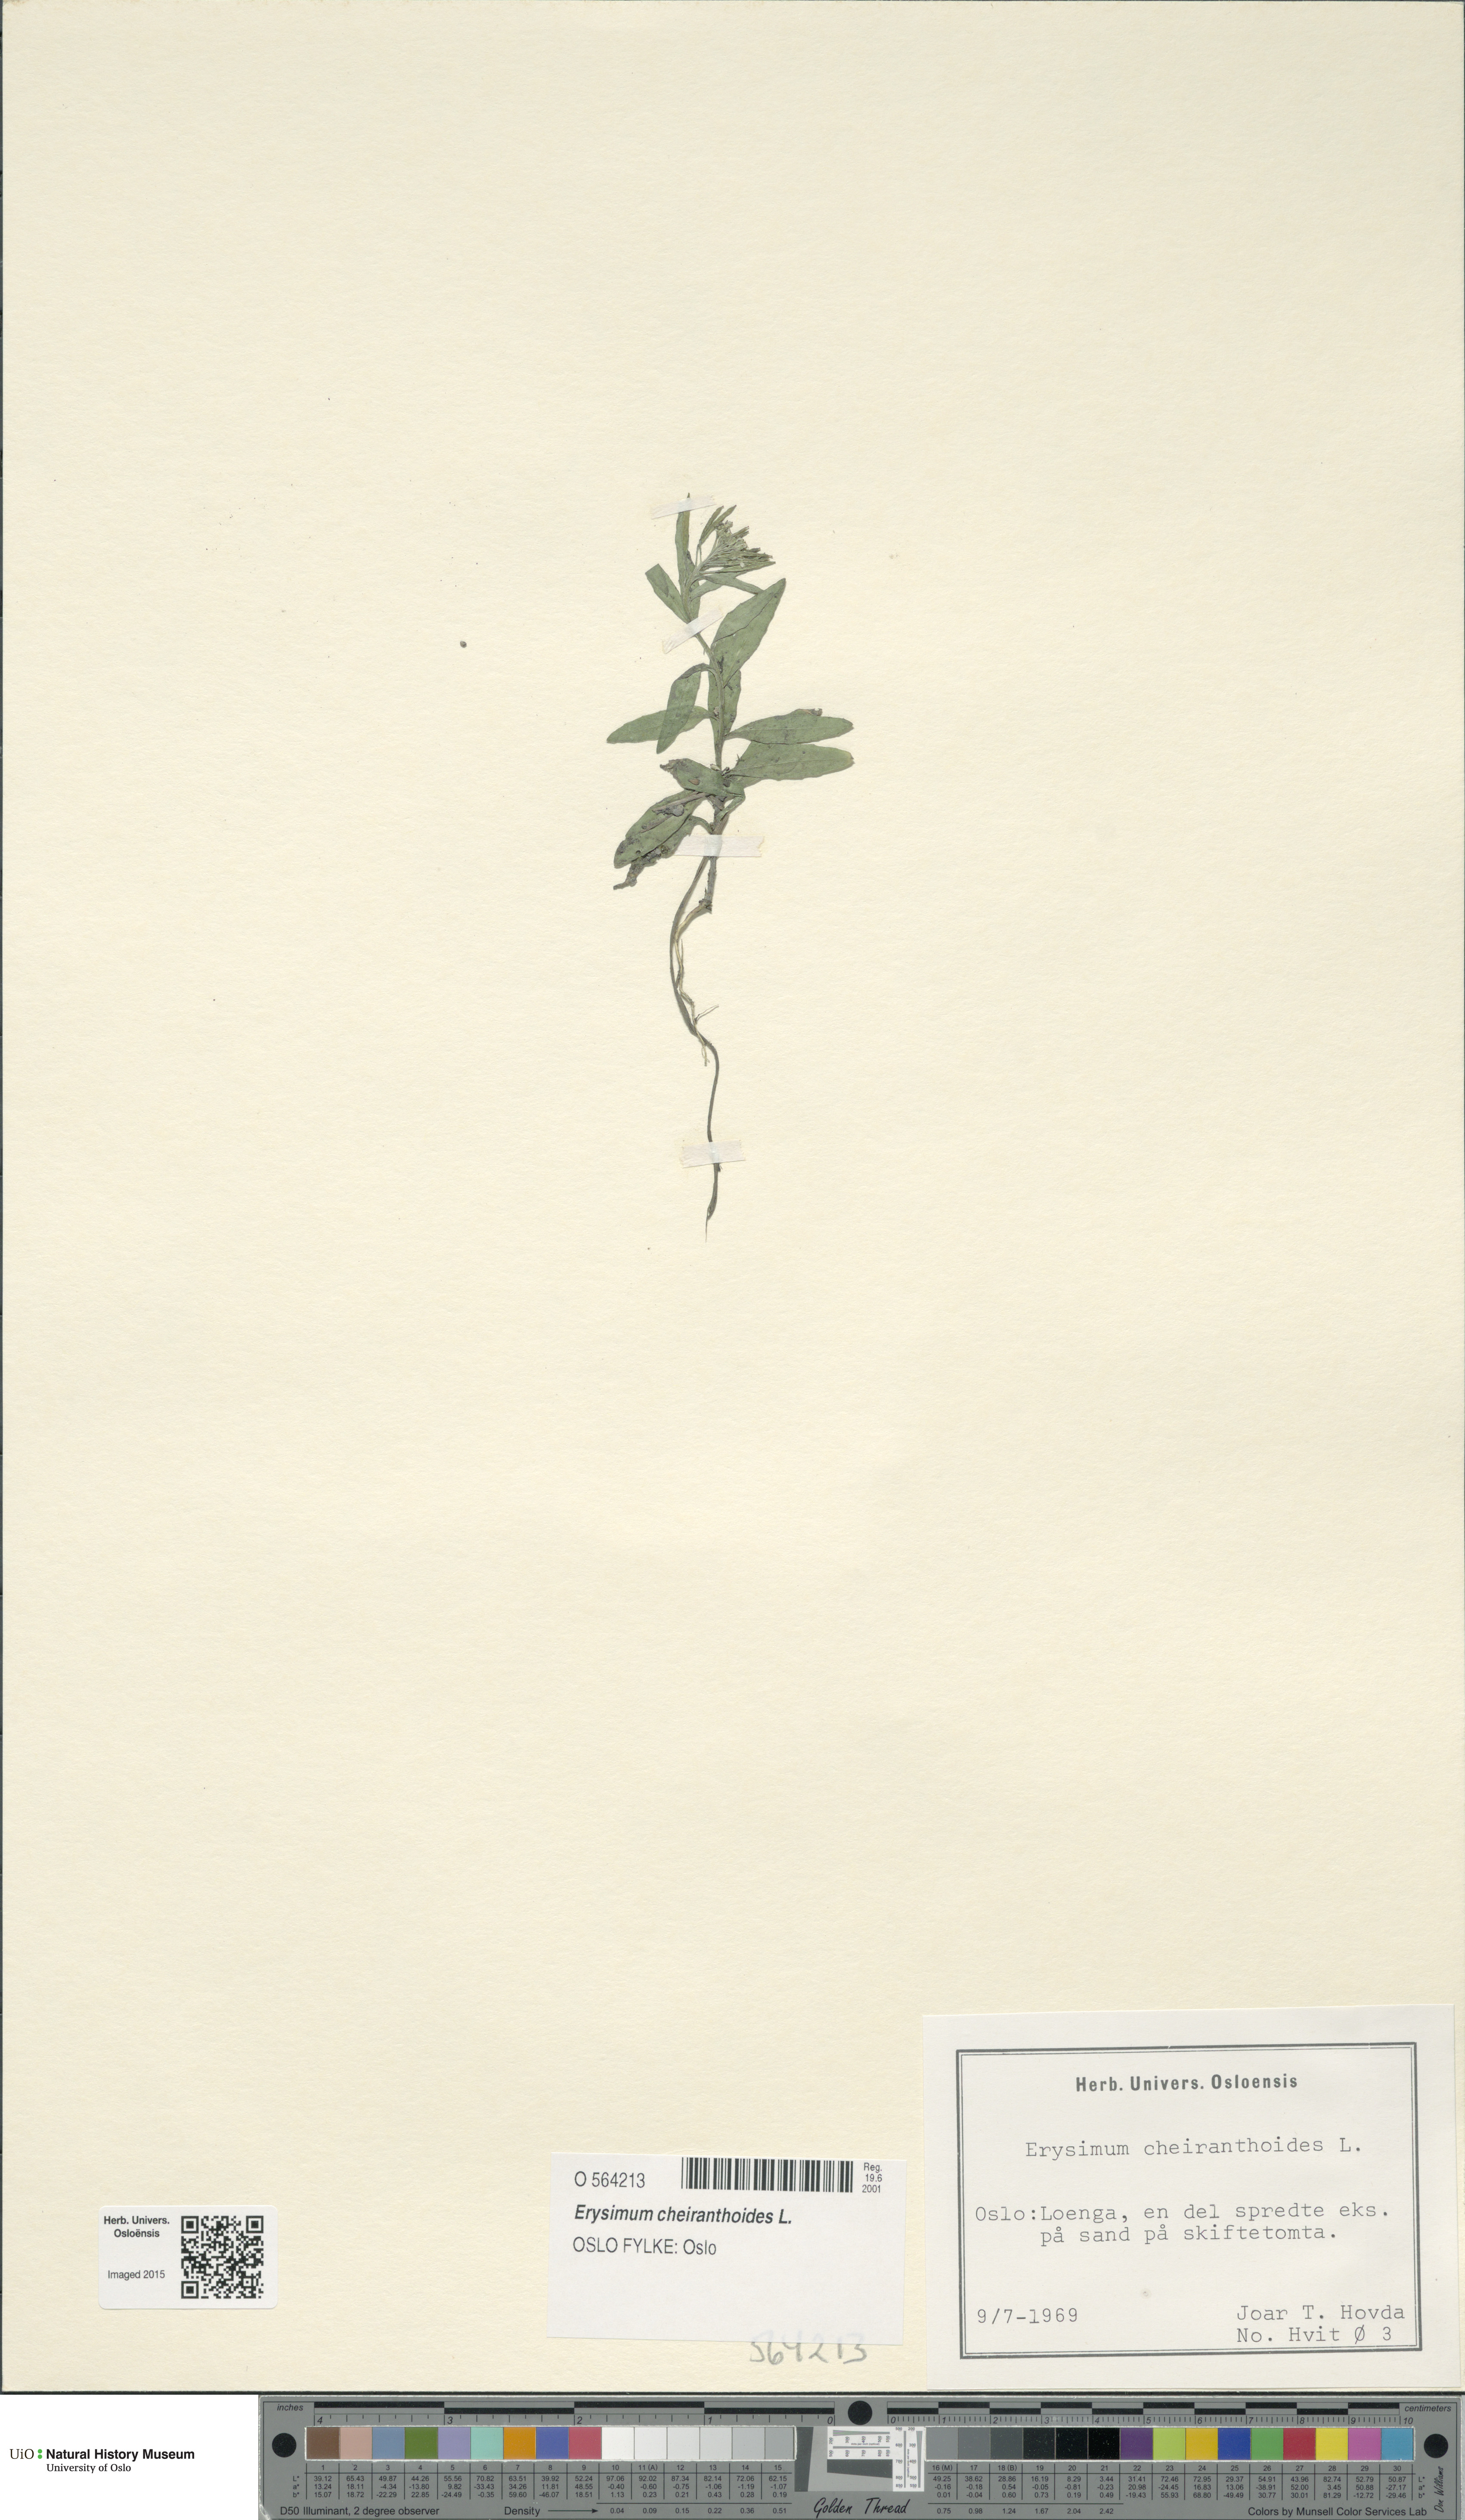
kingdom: Plantae
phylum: Tracheophyta
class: Magnoliopsida
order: Brassicales
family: Brassicaceae
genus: Erysimum
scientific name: Erysimum cheiranthoides
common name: Treacle mustard
